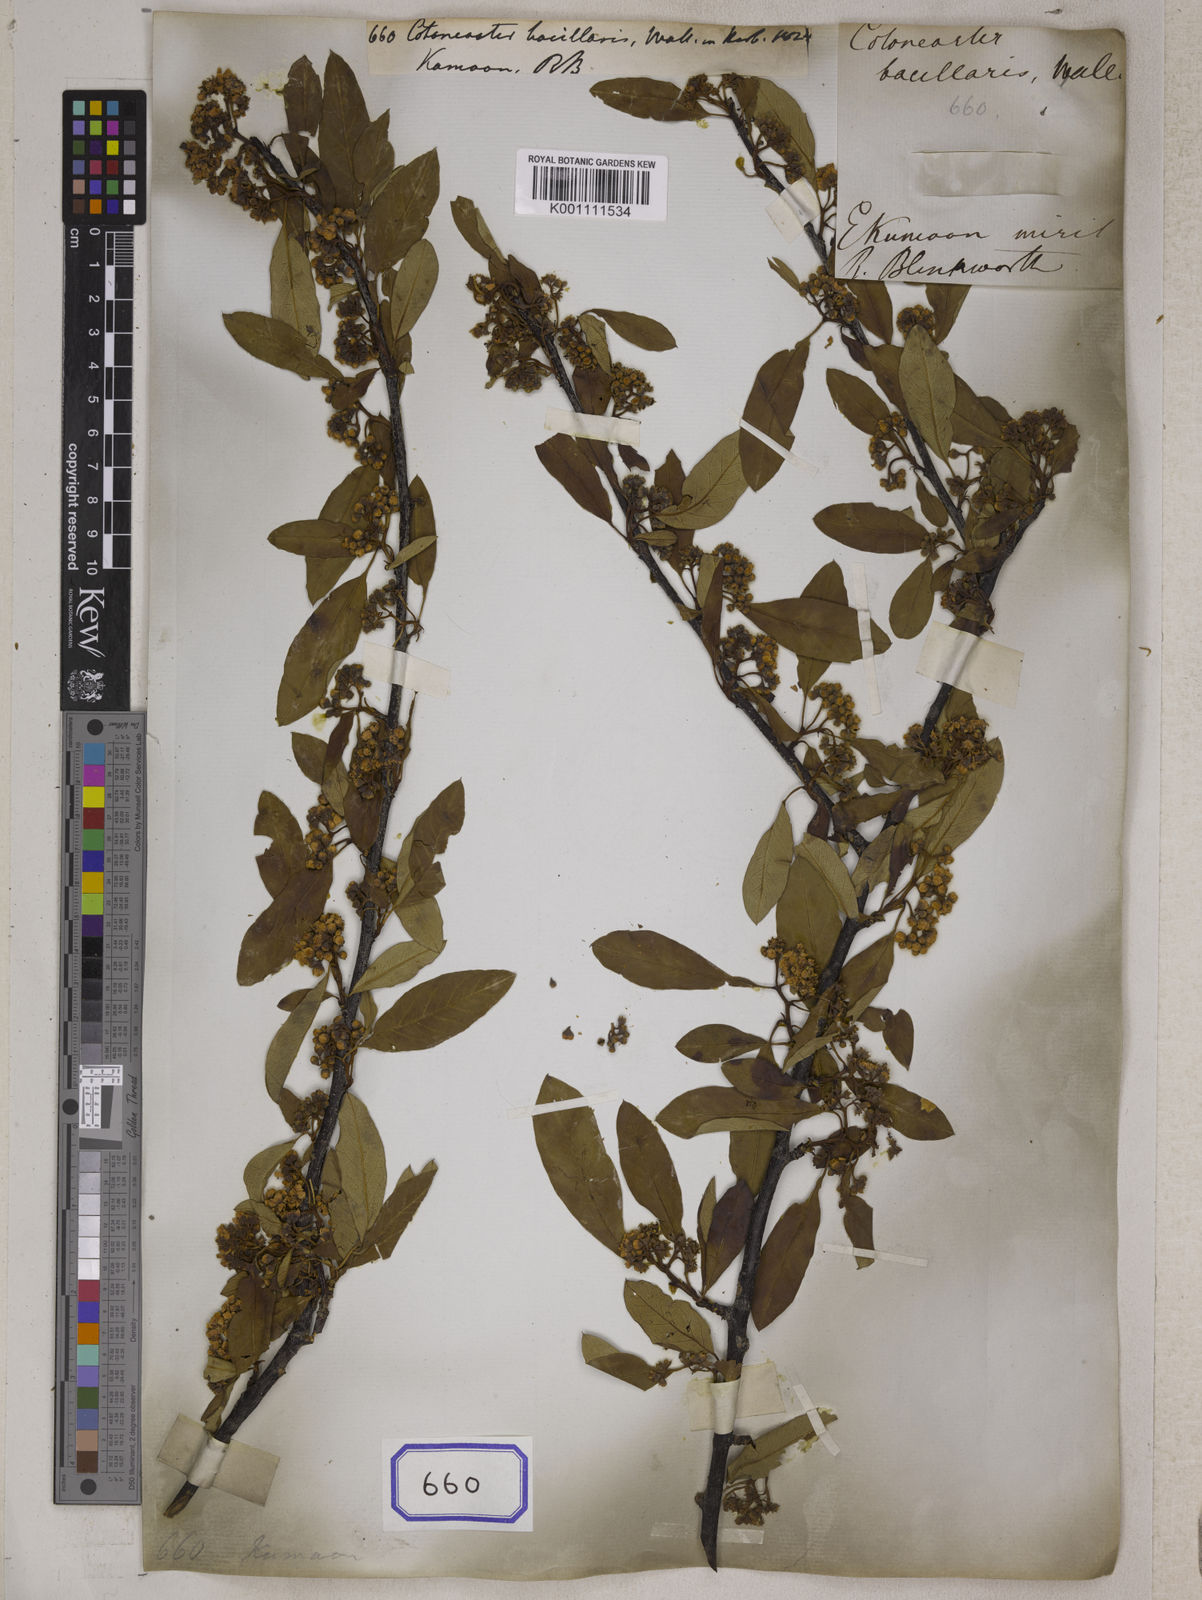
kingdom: Plantae
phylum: Tracheophyta
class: Magnoliopsida
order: Rosales
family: Rosaceae
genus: Cotoneaster
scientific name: Cotoneaster
